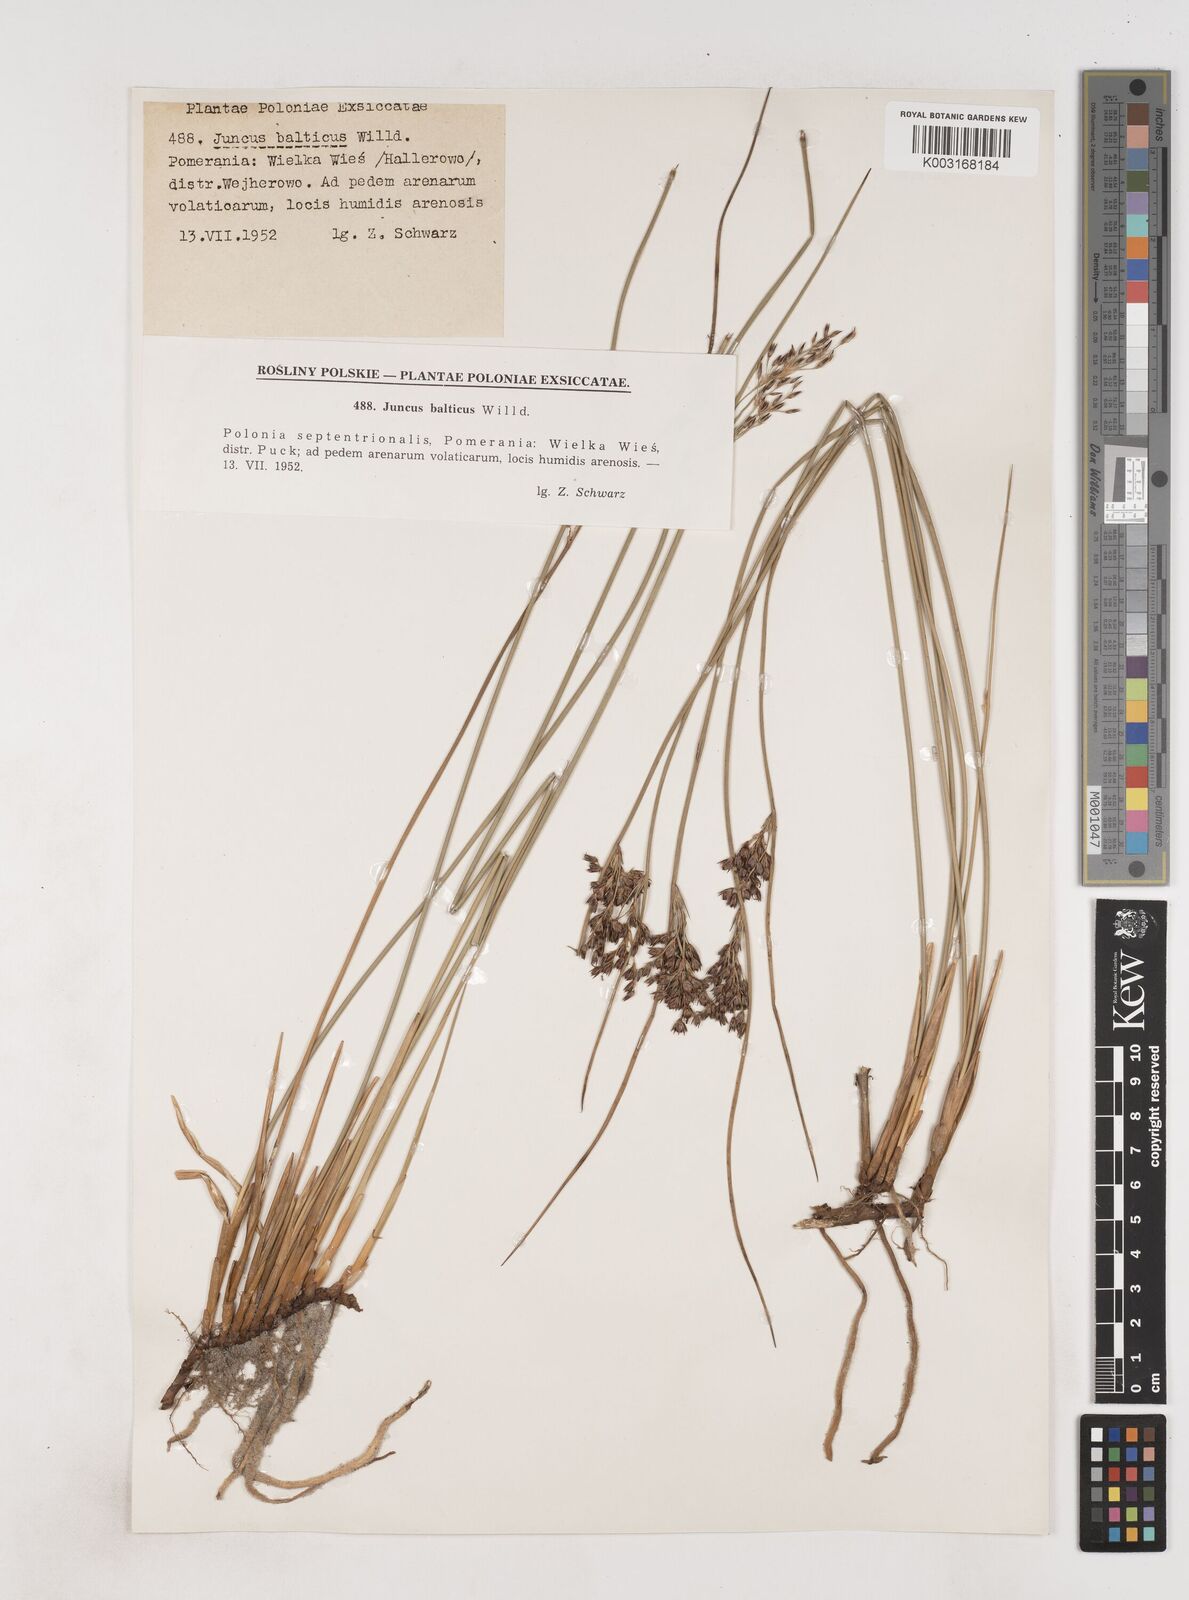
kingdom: Plantae
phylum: Tracheophyta
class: Liliopsida
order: Poales
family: Juncaceae
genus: Juncus
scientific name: Juncus balticus
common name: Baltic rush
